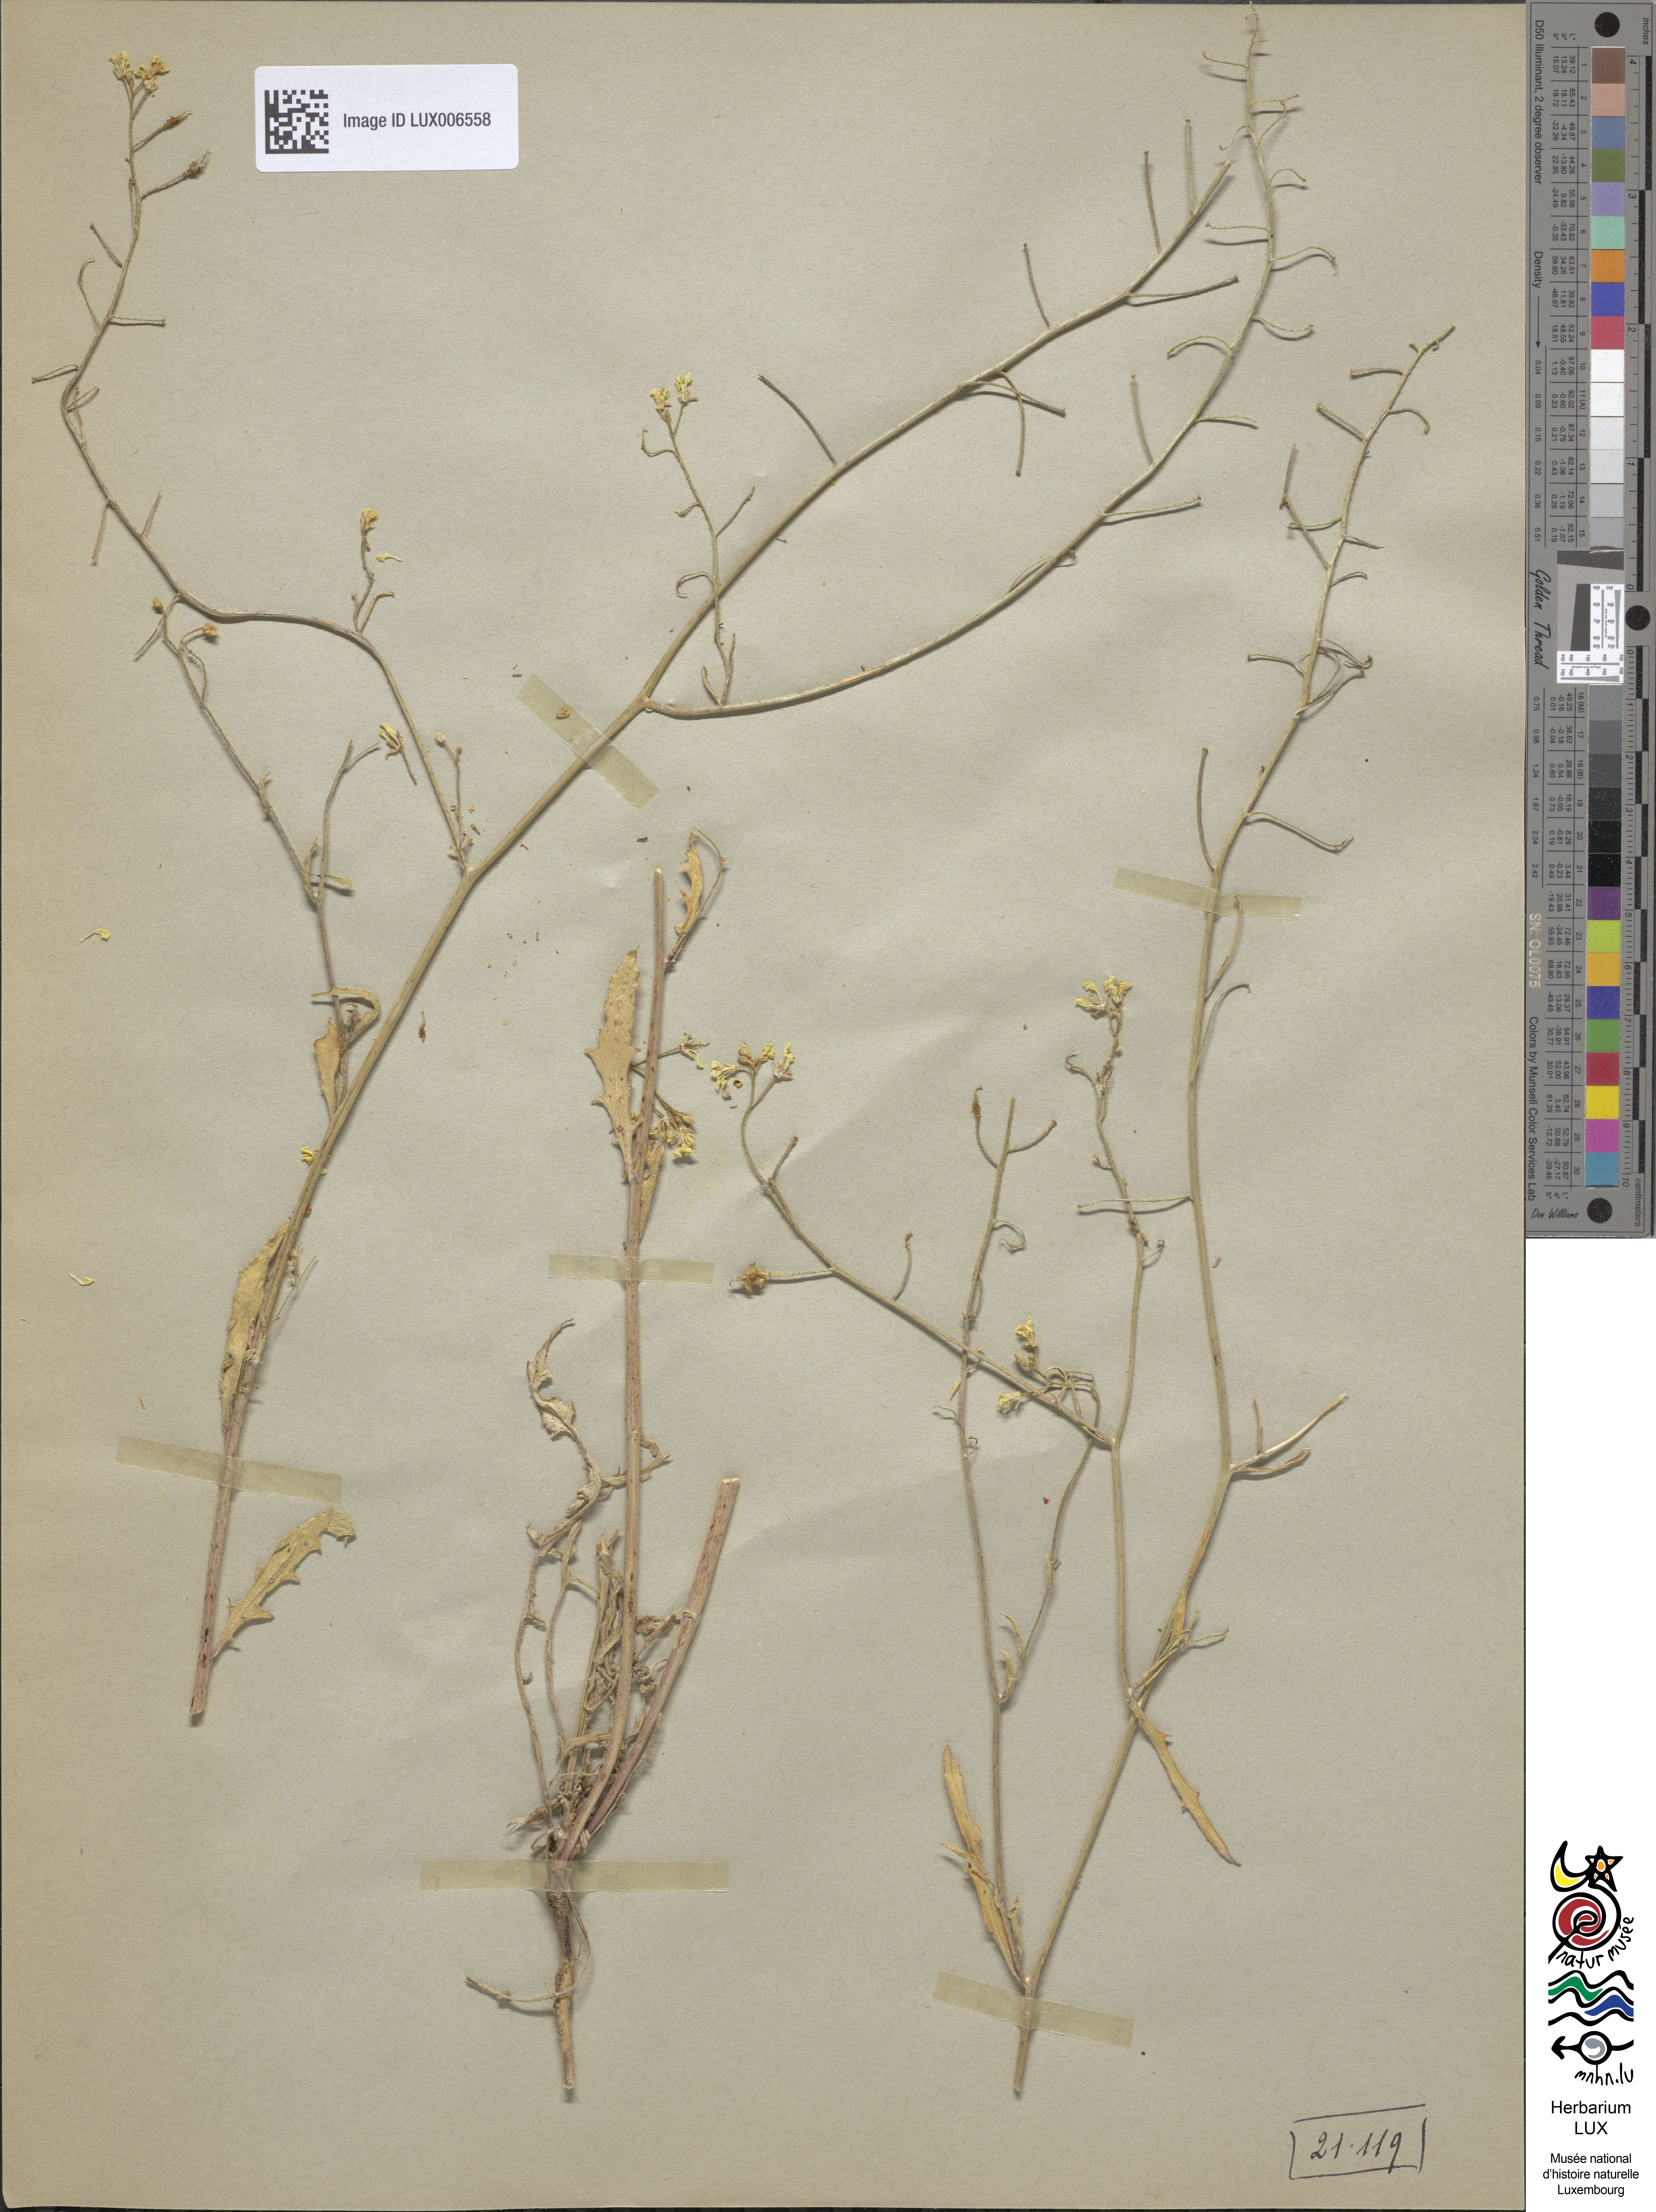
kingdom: Plantae
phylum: Tracheophyta
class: Magnoliopsida
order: Brassicales
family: Brassicaceae
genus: Bunias
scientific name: Bunias erucago
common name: Southern warty-cabbage
